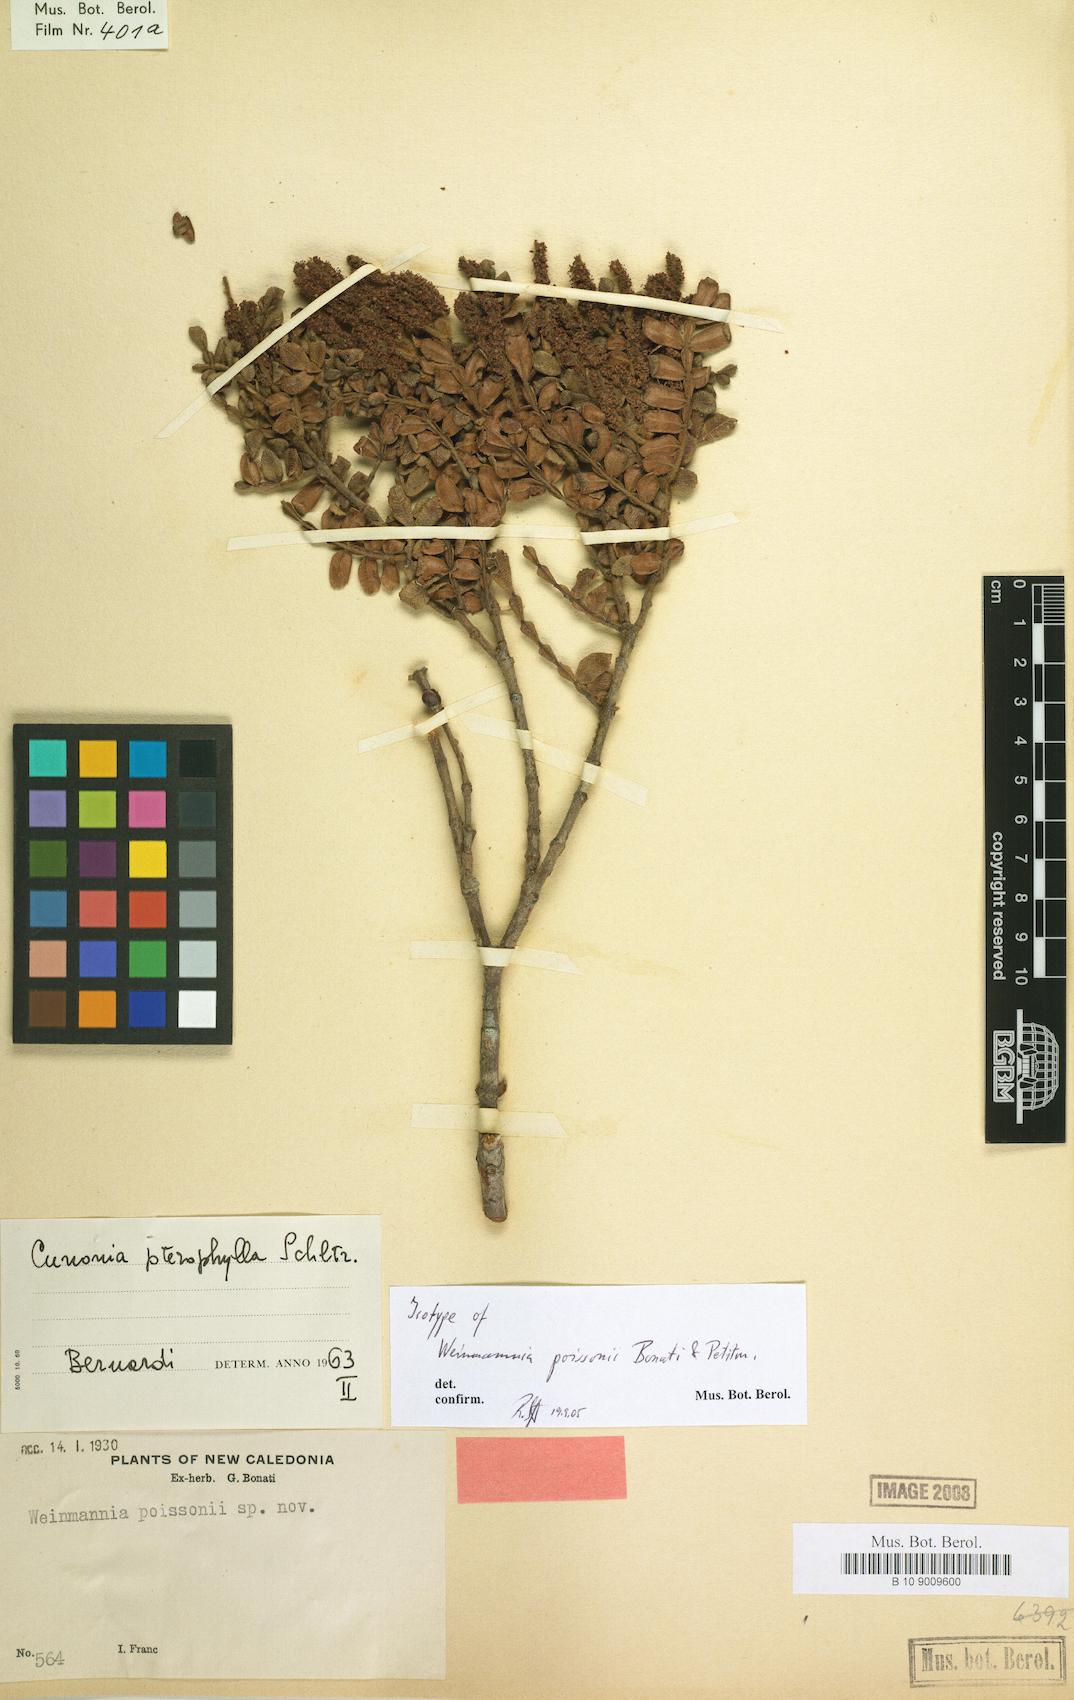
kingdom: Plantae
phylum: Tracheophyta
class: Magnoliopsida
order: Oxalidales
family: Cunoniaceae
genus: Cunonia
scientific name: Cunonia pterophylla
